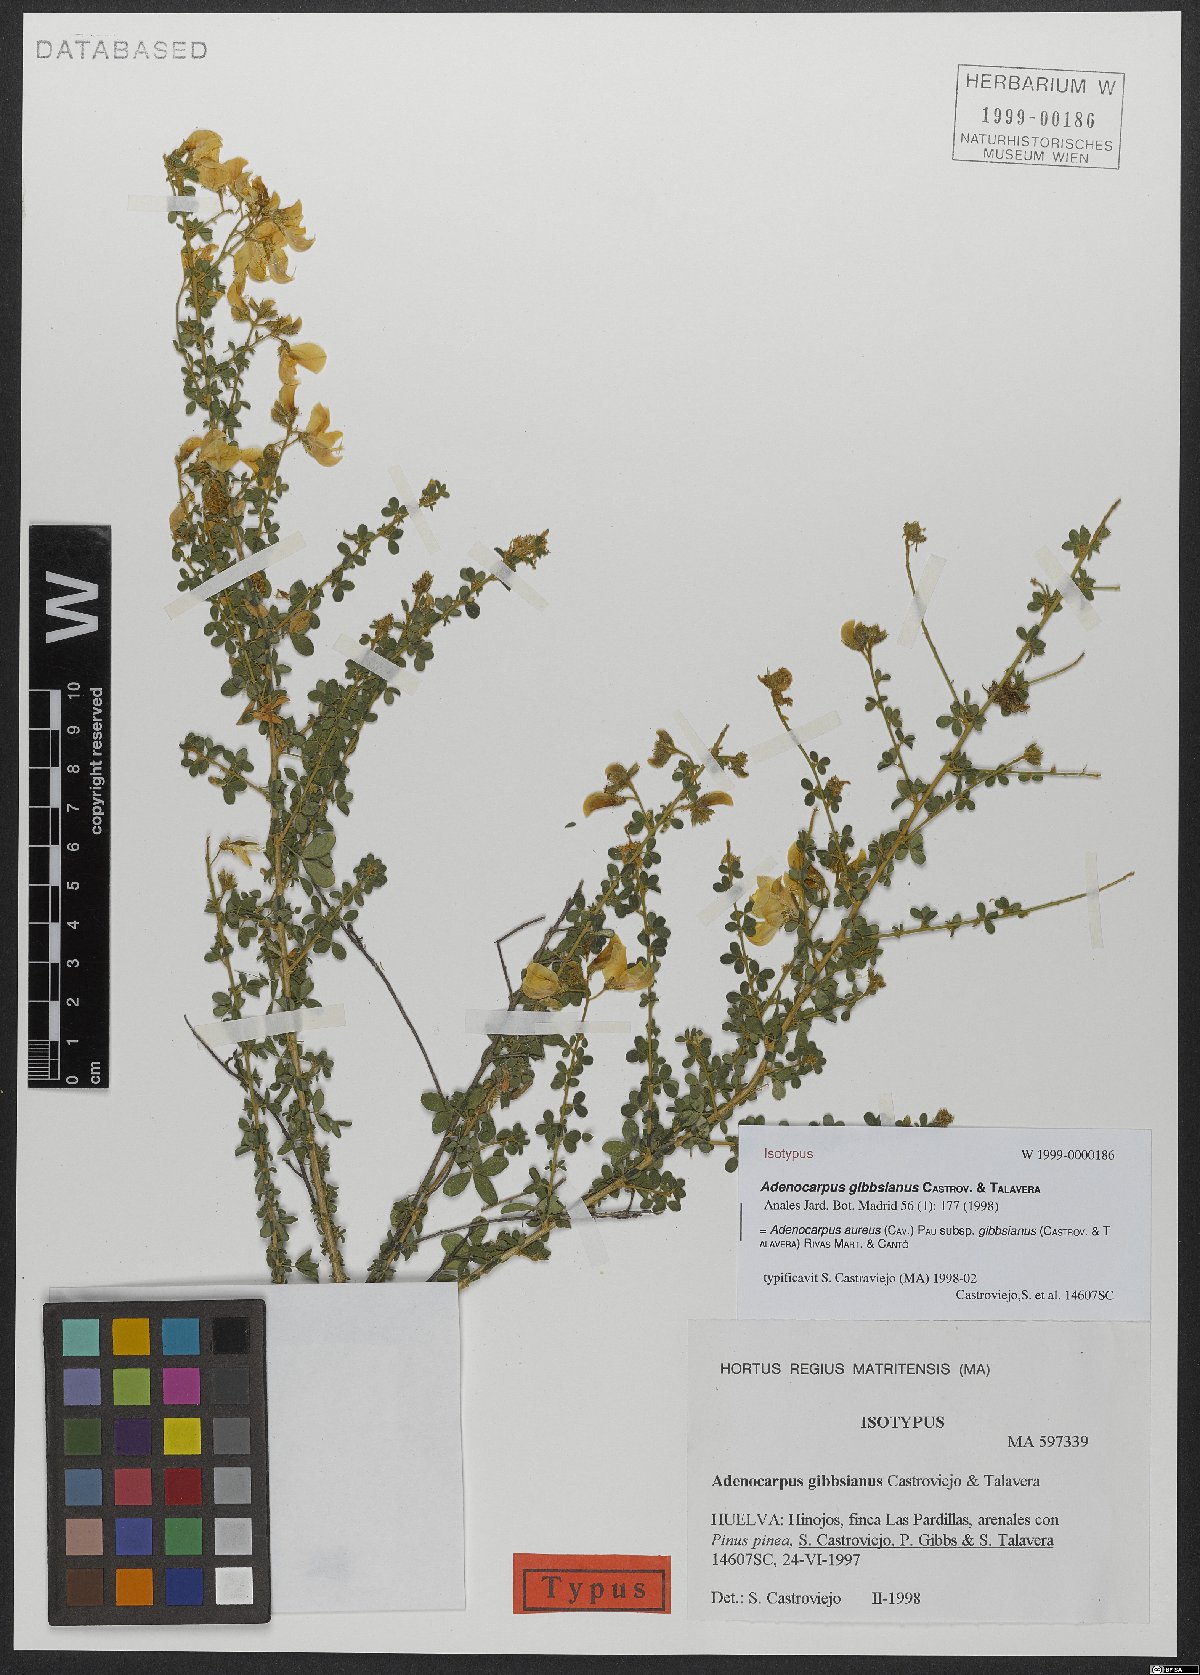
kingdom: Plantae
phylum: Tracheophyta
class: Magnoliopsida
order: Fabales
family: Fabaceae
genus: Adenocarpus
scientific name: Adenocarpus complicatus
